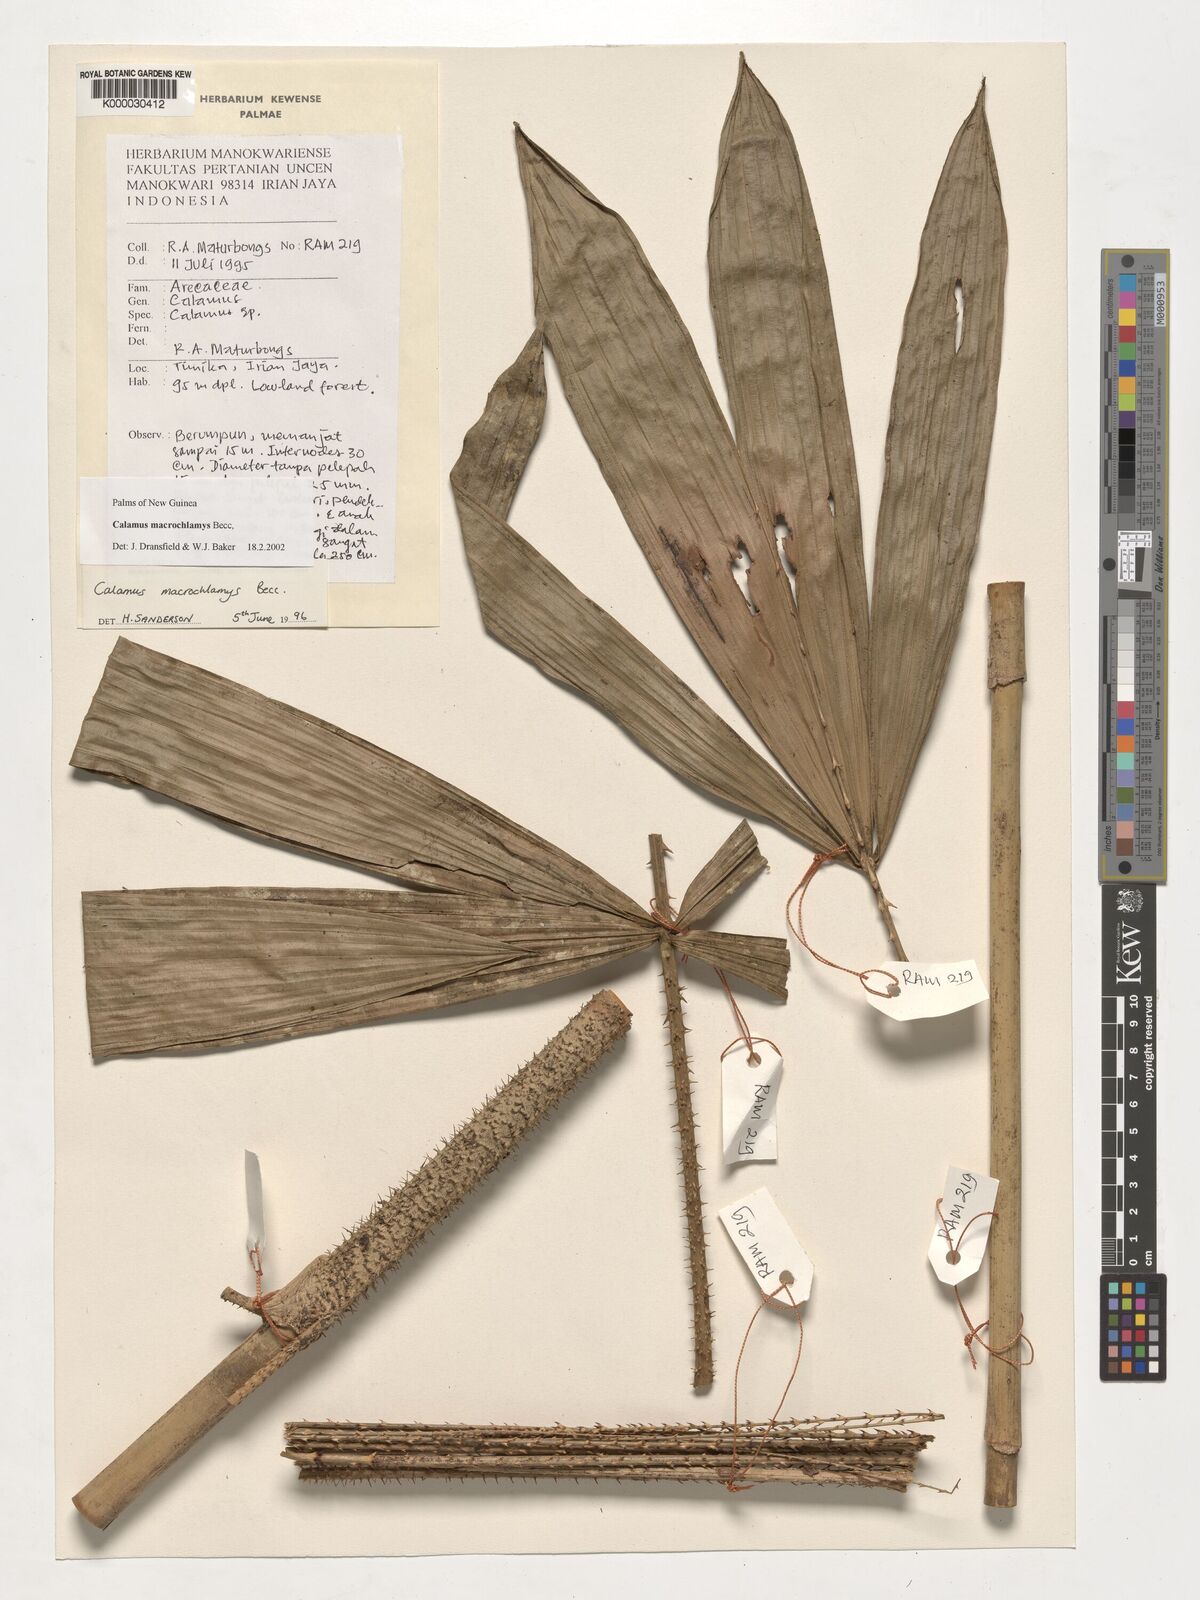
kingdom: Plantae
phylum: Tracheophyta
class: Liliopsida
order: Arecales
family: Arecaceae
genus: Calamus
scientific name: Calamus macrochlamys
